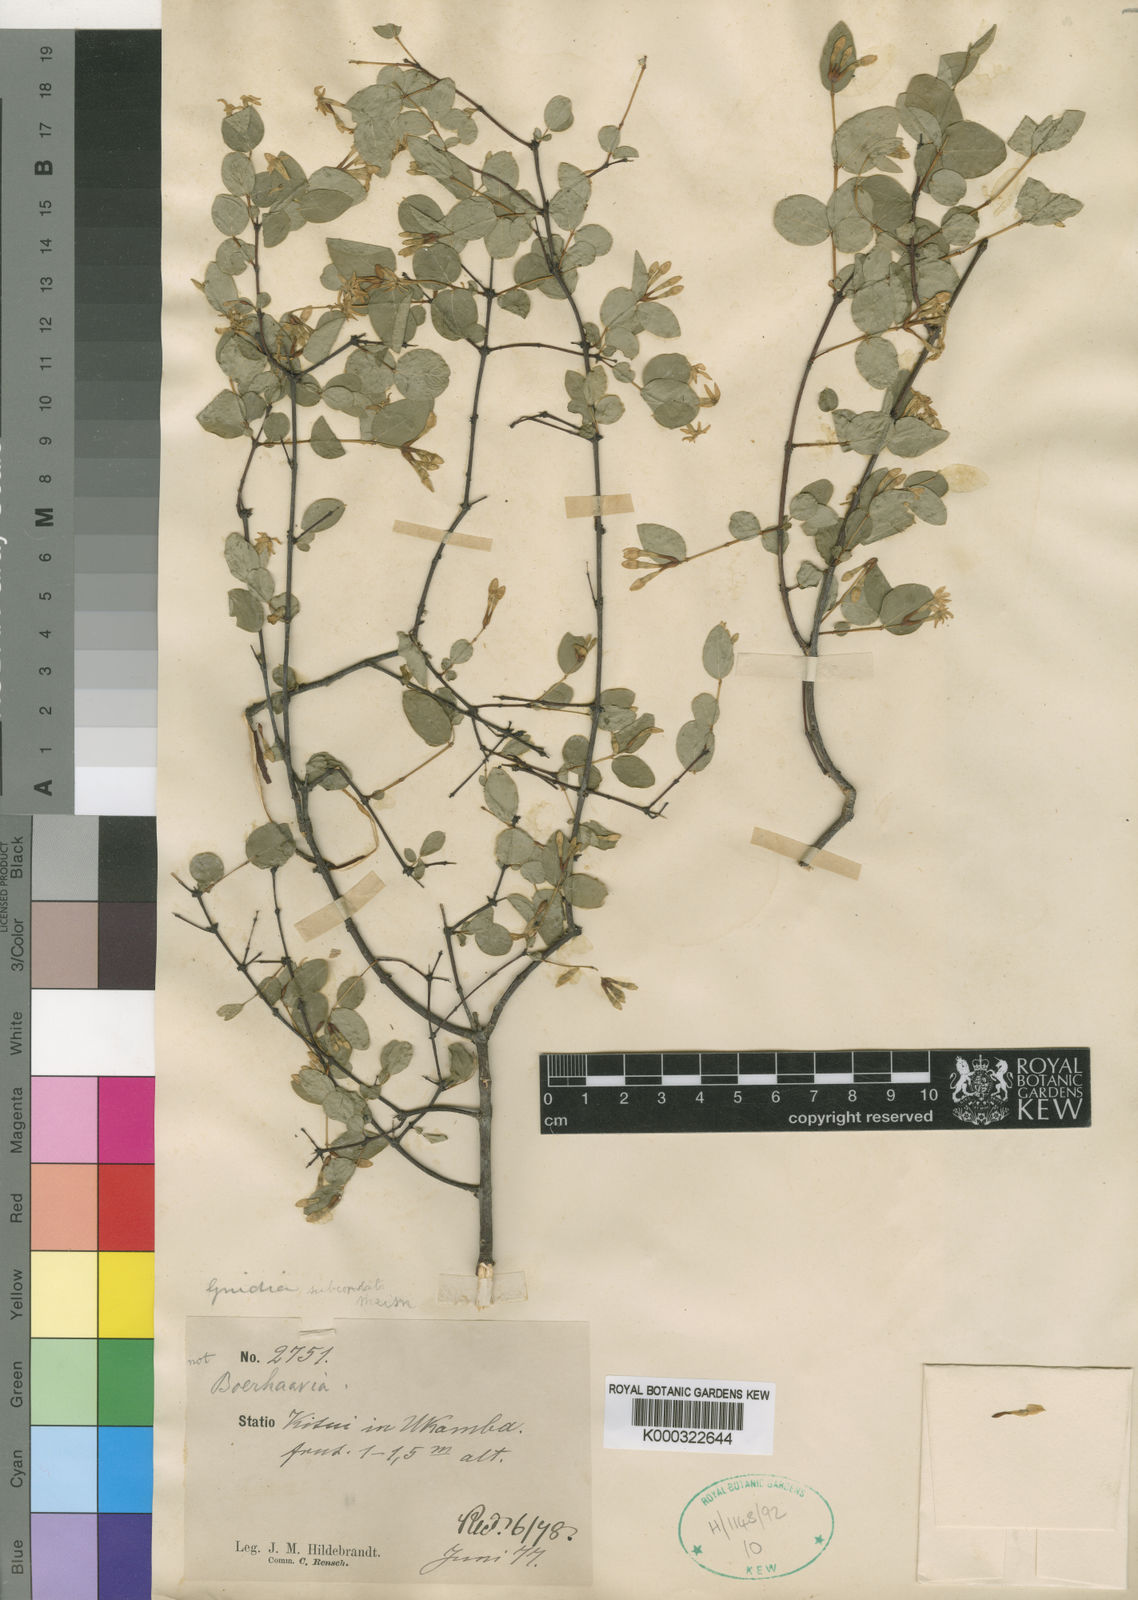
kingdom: Plantae
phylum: Tracheophyta
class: Magnoliopsida
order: Malvales
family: Thymelaeaceae
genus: Gnidia
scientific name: Gnidia subcordata
